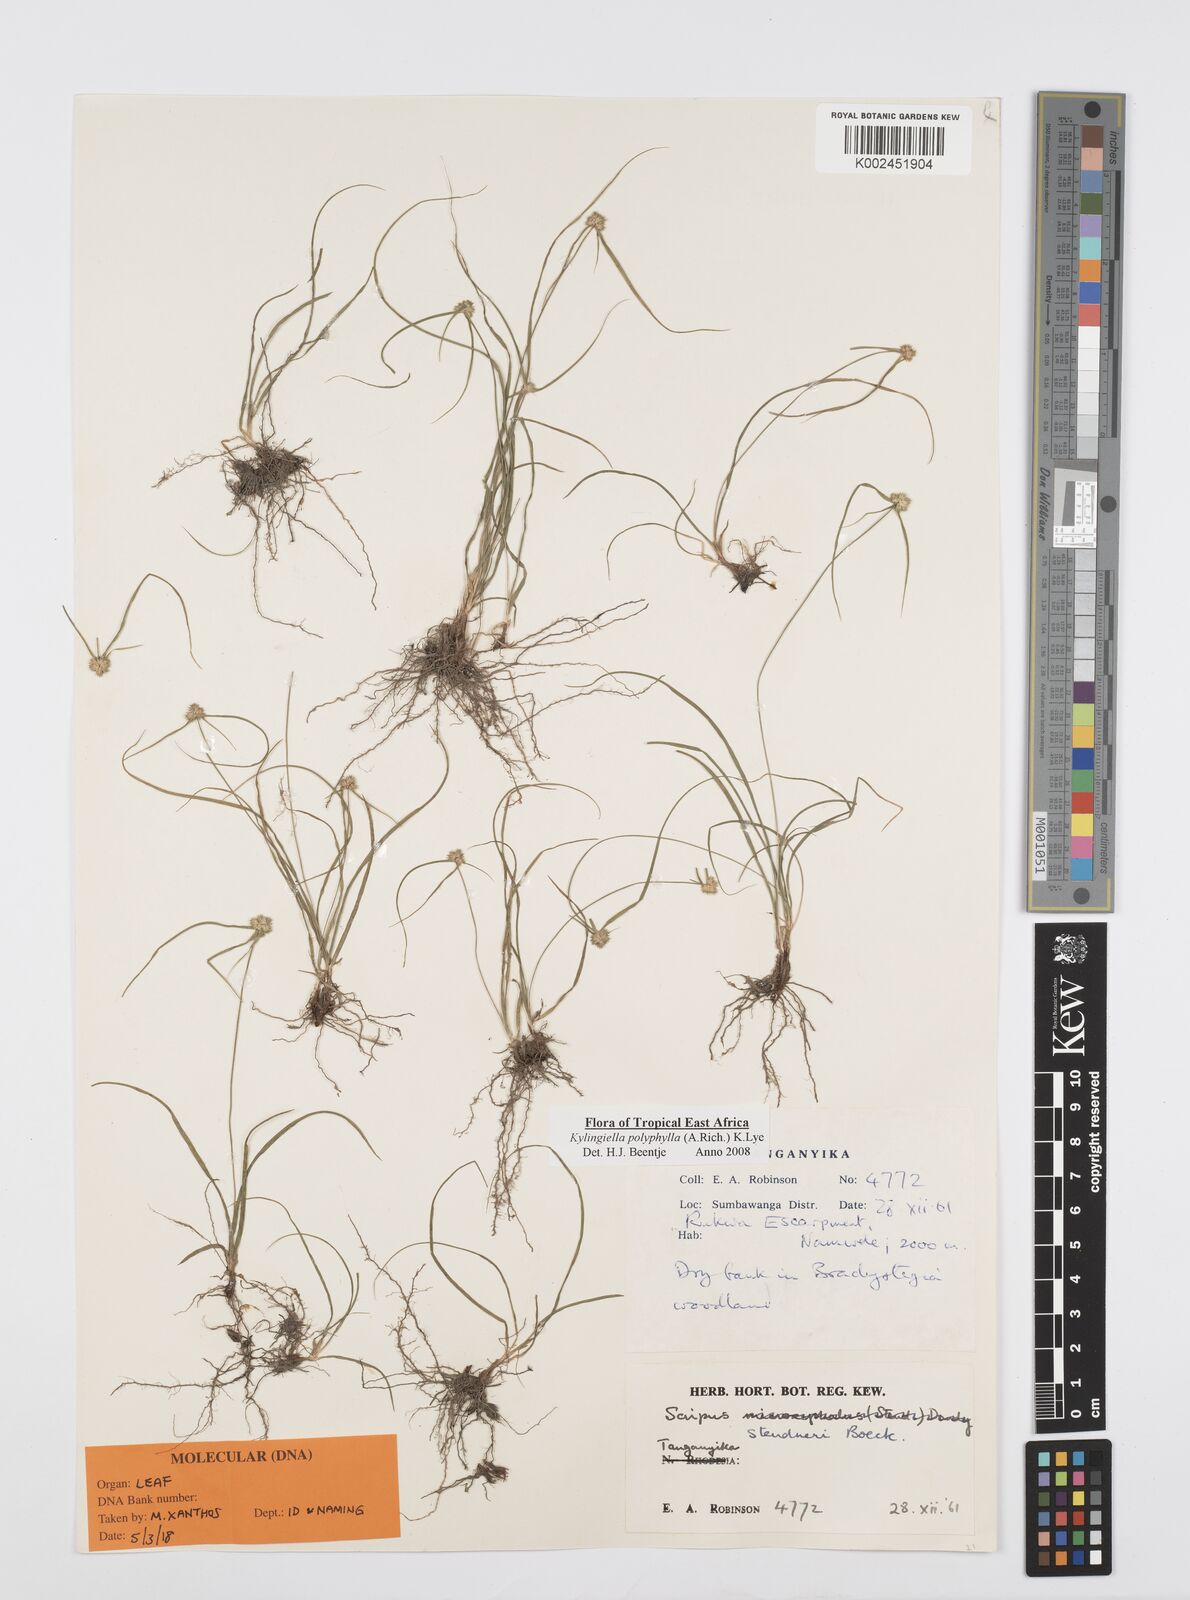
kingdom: Plantae
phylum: Tracheophyta
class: Liliopsida
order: Poales
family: Cyperaceae
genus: Cyperus
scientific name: Cyperus bulbosus
